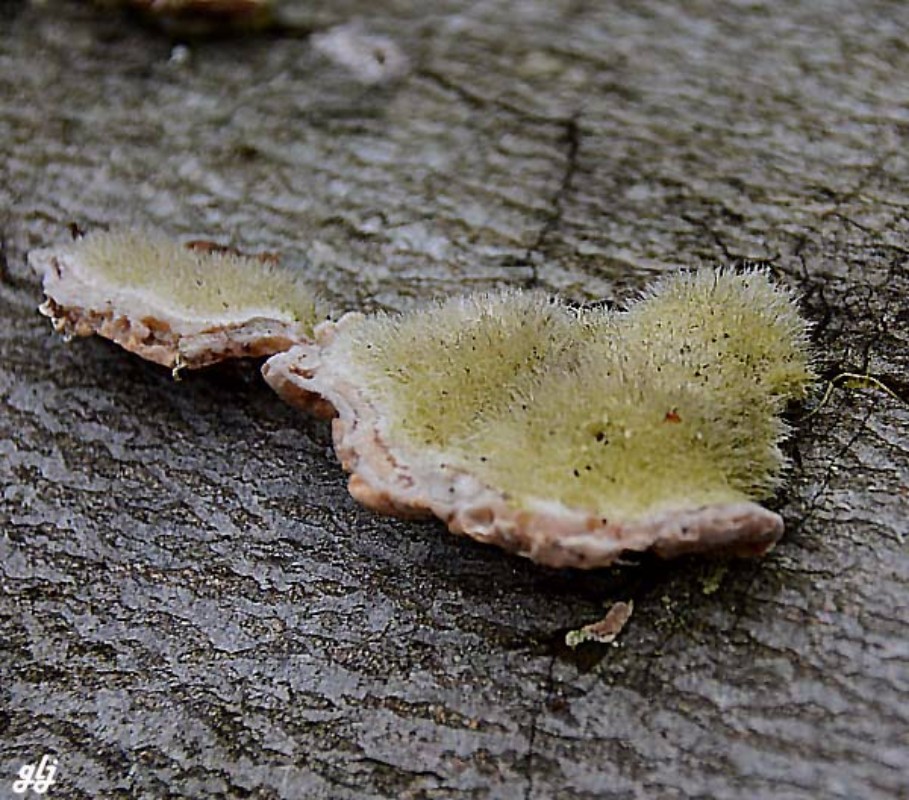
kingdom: Fungi
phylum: Basidiomycota
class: Agaricomycetes
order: Polyporales
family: Polyporaceae
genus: Trametes
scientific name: Trametes hirsuta
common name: håret læderporesvamp
